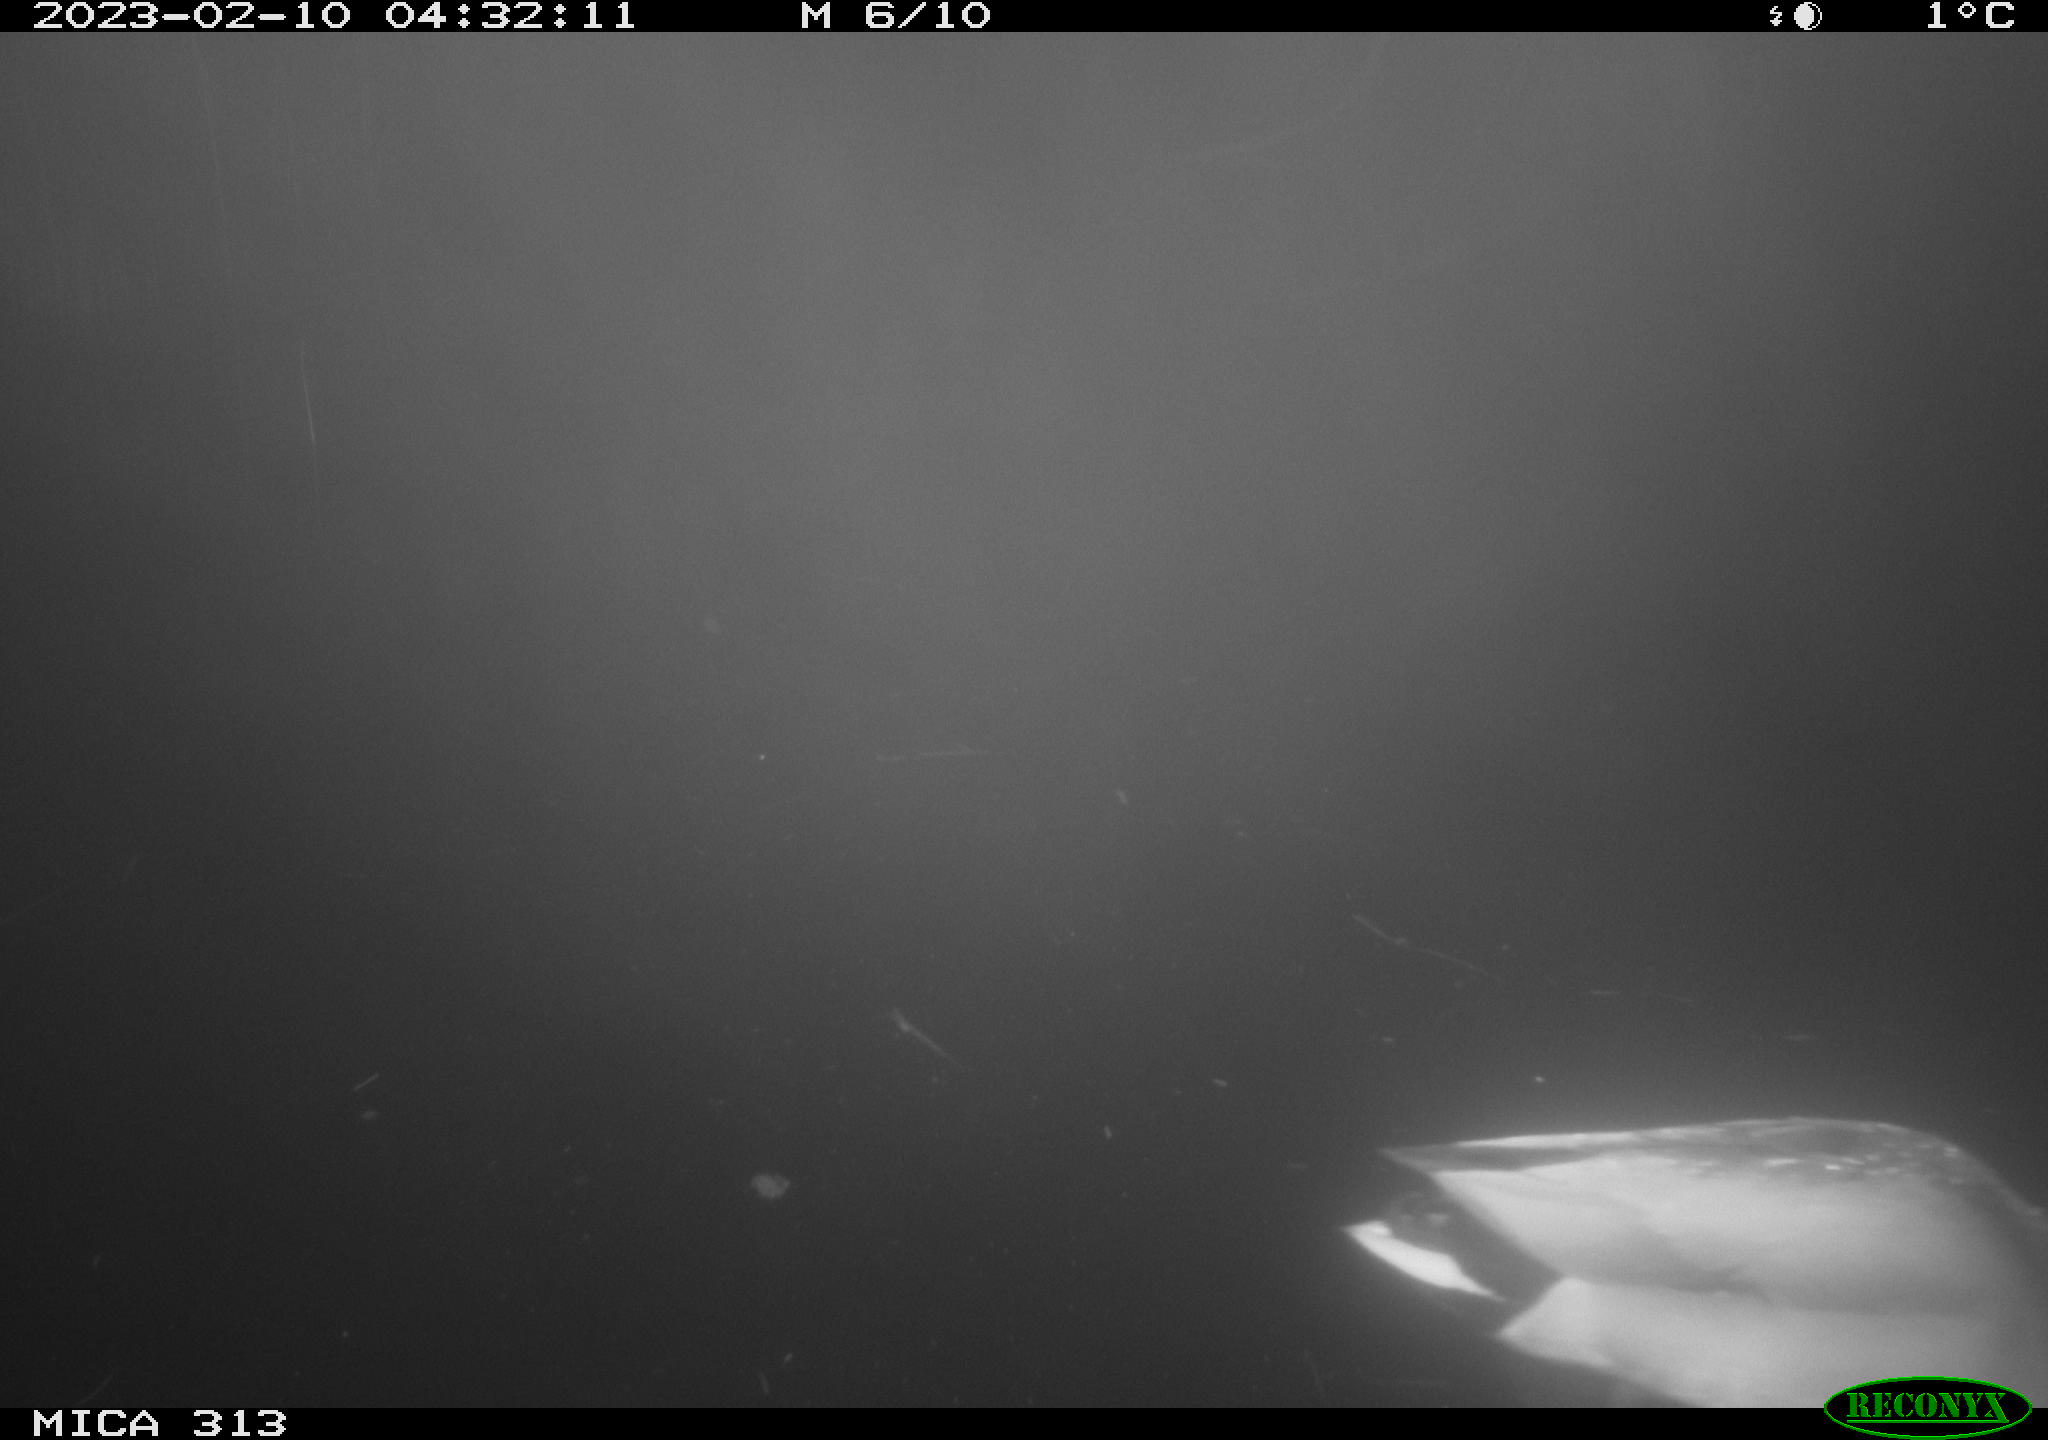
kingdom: Animalia
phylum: Chordata
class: Aves
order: Anseriformes
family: Anatidae
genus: Anas
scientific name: Anas
